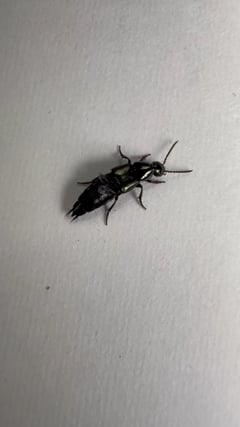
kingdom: Animalia
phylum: Arthropoda
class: Insecta
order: Coleoptera
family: Staphylinidae
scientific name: Staphylinidae
